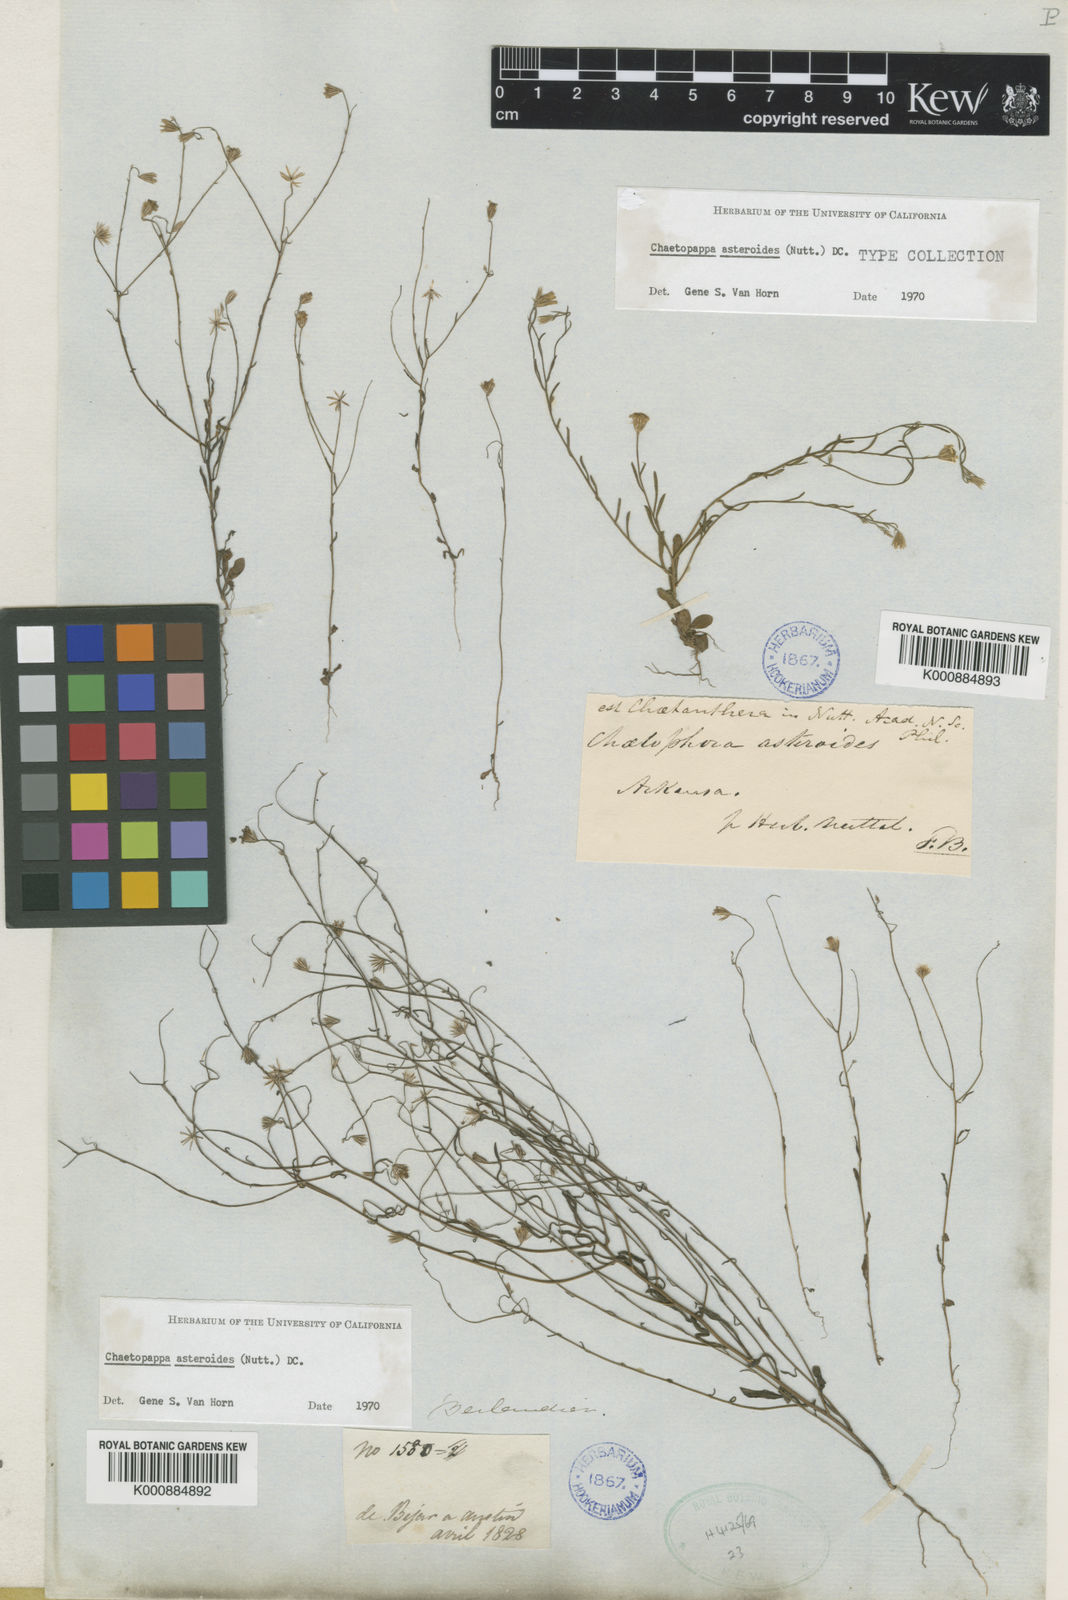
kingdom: Plantae
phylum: Tracheophyta
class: Magnoliopsida
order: Asterales
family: Asteraceae
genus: Chaetopappa
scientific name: Chaetopappa asteroides
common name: Tiny lazy daisy
